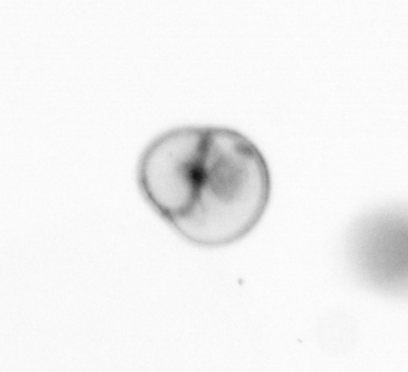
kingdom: Chromista
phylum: Myzozoa
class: Dinophyceae
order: Noctilucales
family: Noctilucaceae
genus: Noctiluca
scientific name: Noctiluca scintillans
